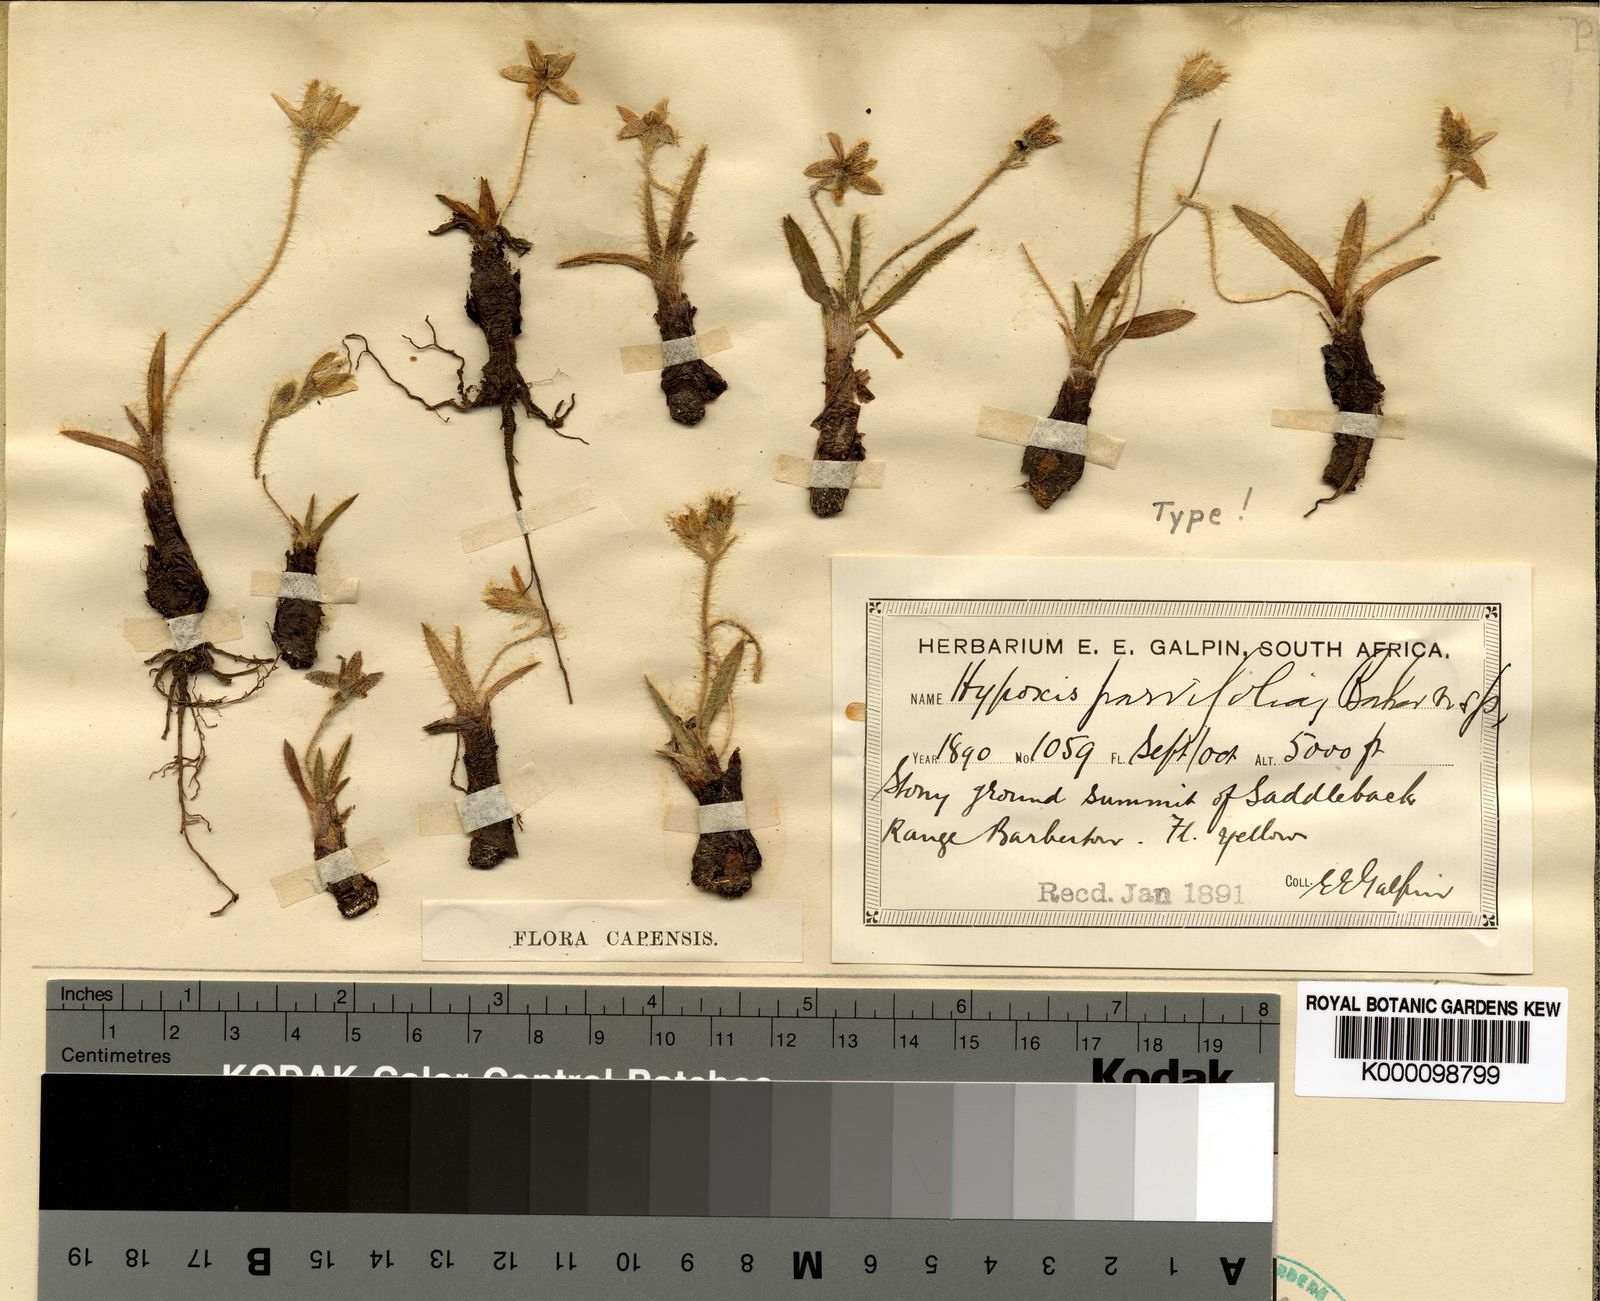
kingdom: Plantae
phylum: Tracheophyta
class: Liliopsida
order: Asparagales
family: Hypoxidaceae
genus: Hypoxis
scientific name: Hypoxis parvifolia
